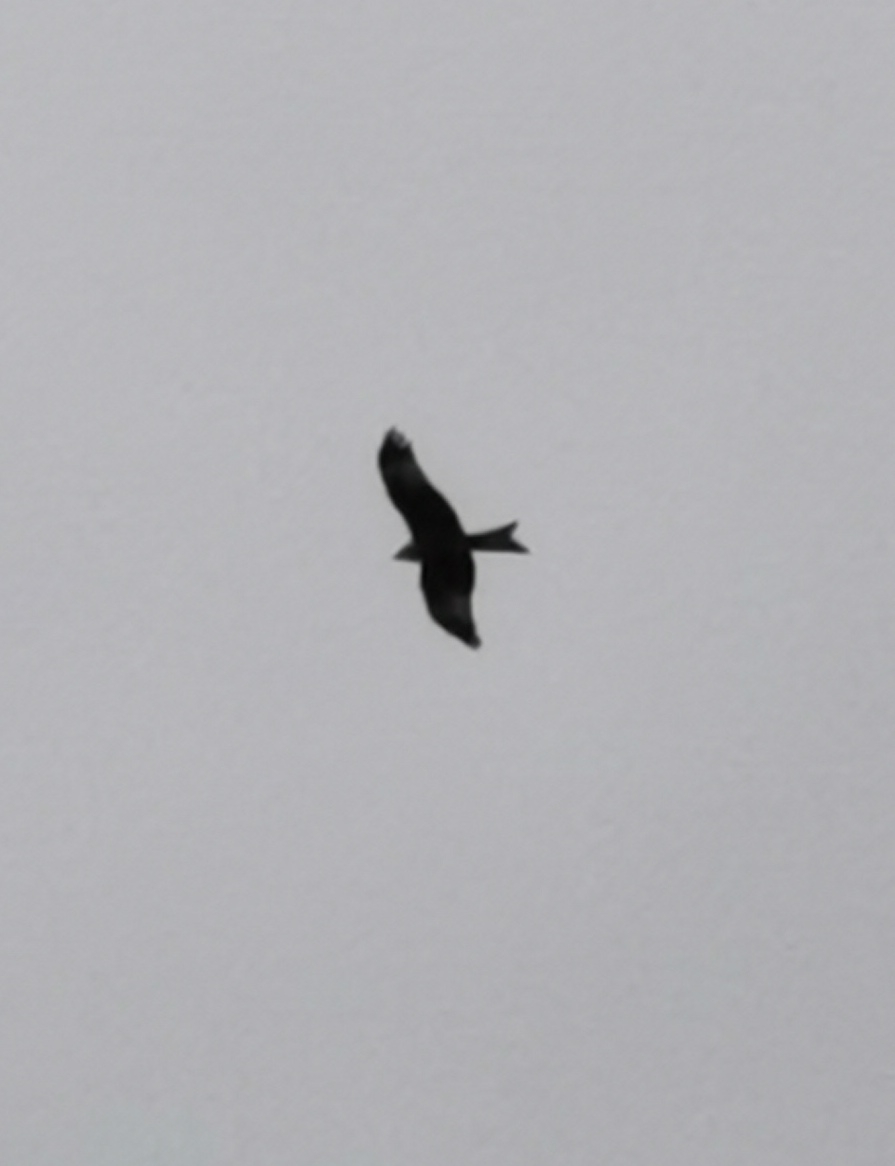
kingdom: Animalia
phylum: Chordata
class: Aves
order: Accipitriformes
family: Accipitridae
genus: Milvus
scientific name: Milvus milvus
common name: Rød glente
